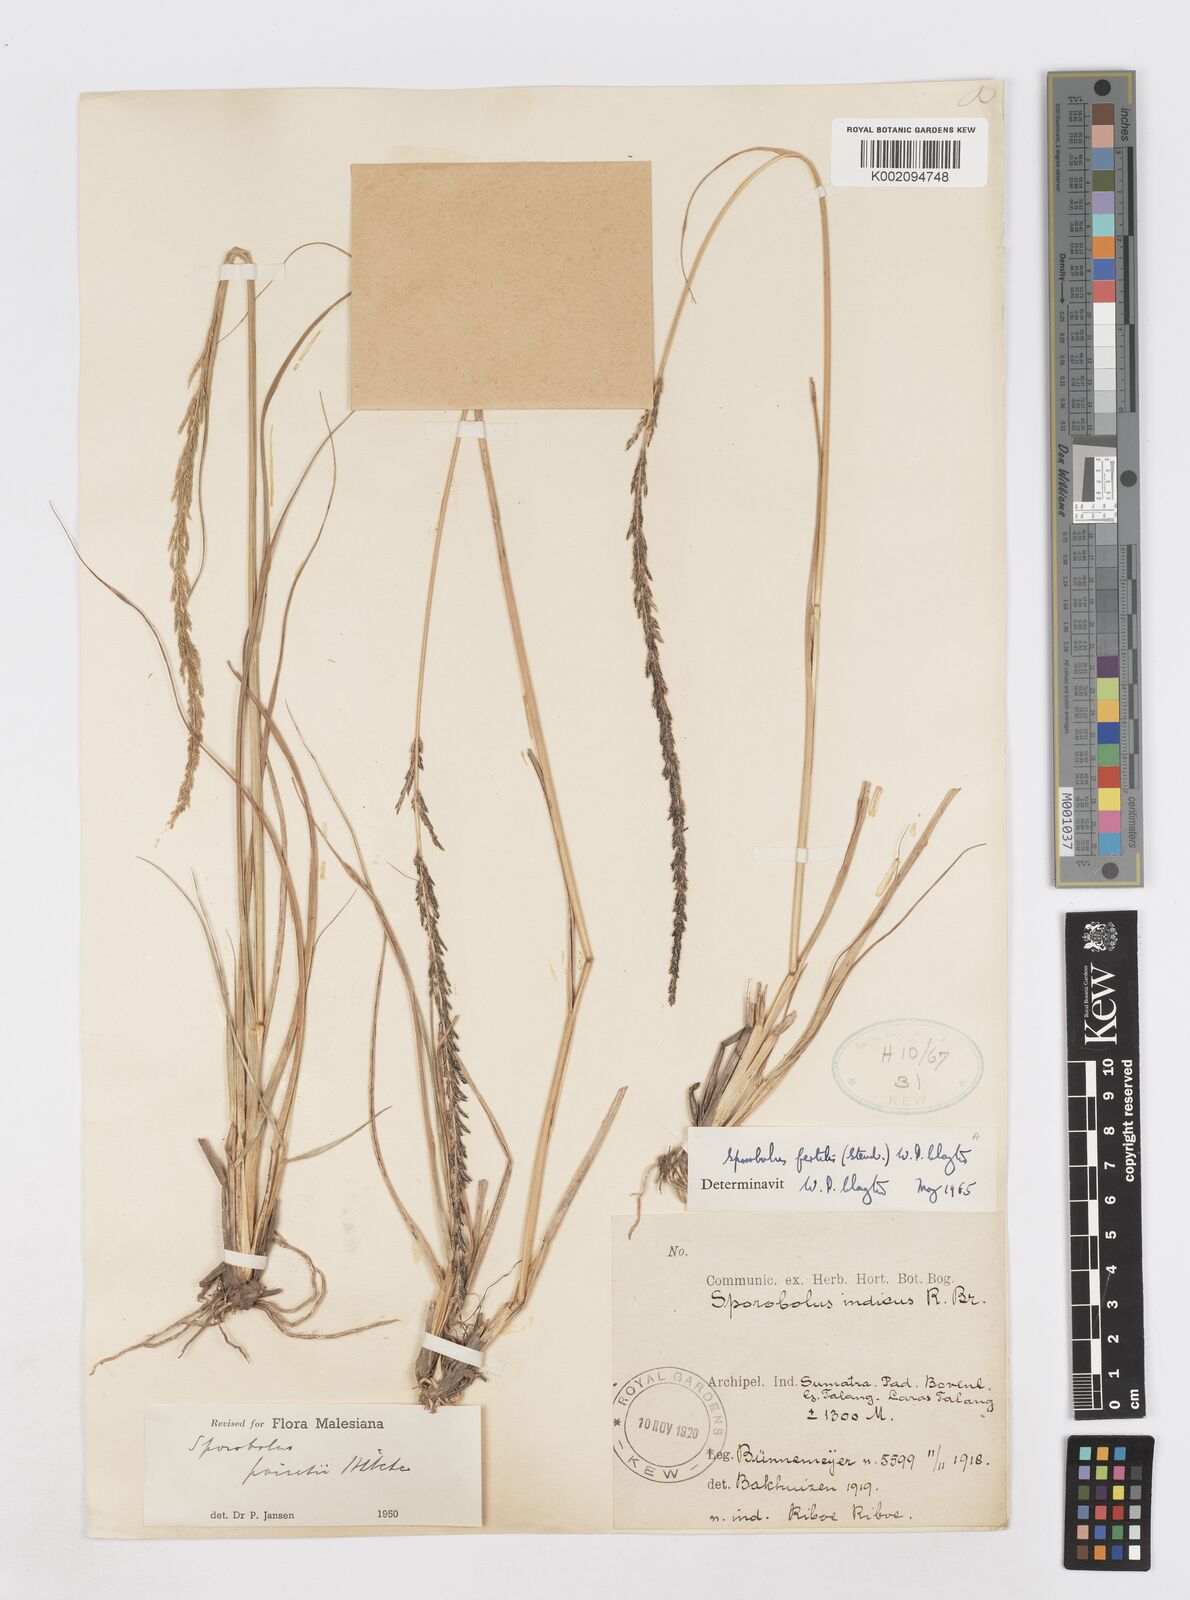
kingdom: Plantae
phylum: Tracheophyta
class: Liliopsida
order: Poales
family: Poaceae
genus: Sporobolus
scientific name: Sporobolus fertilis
